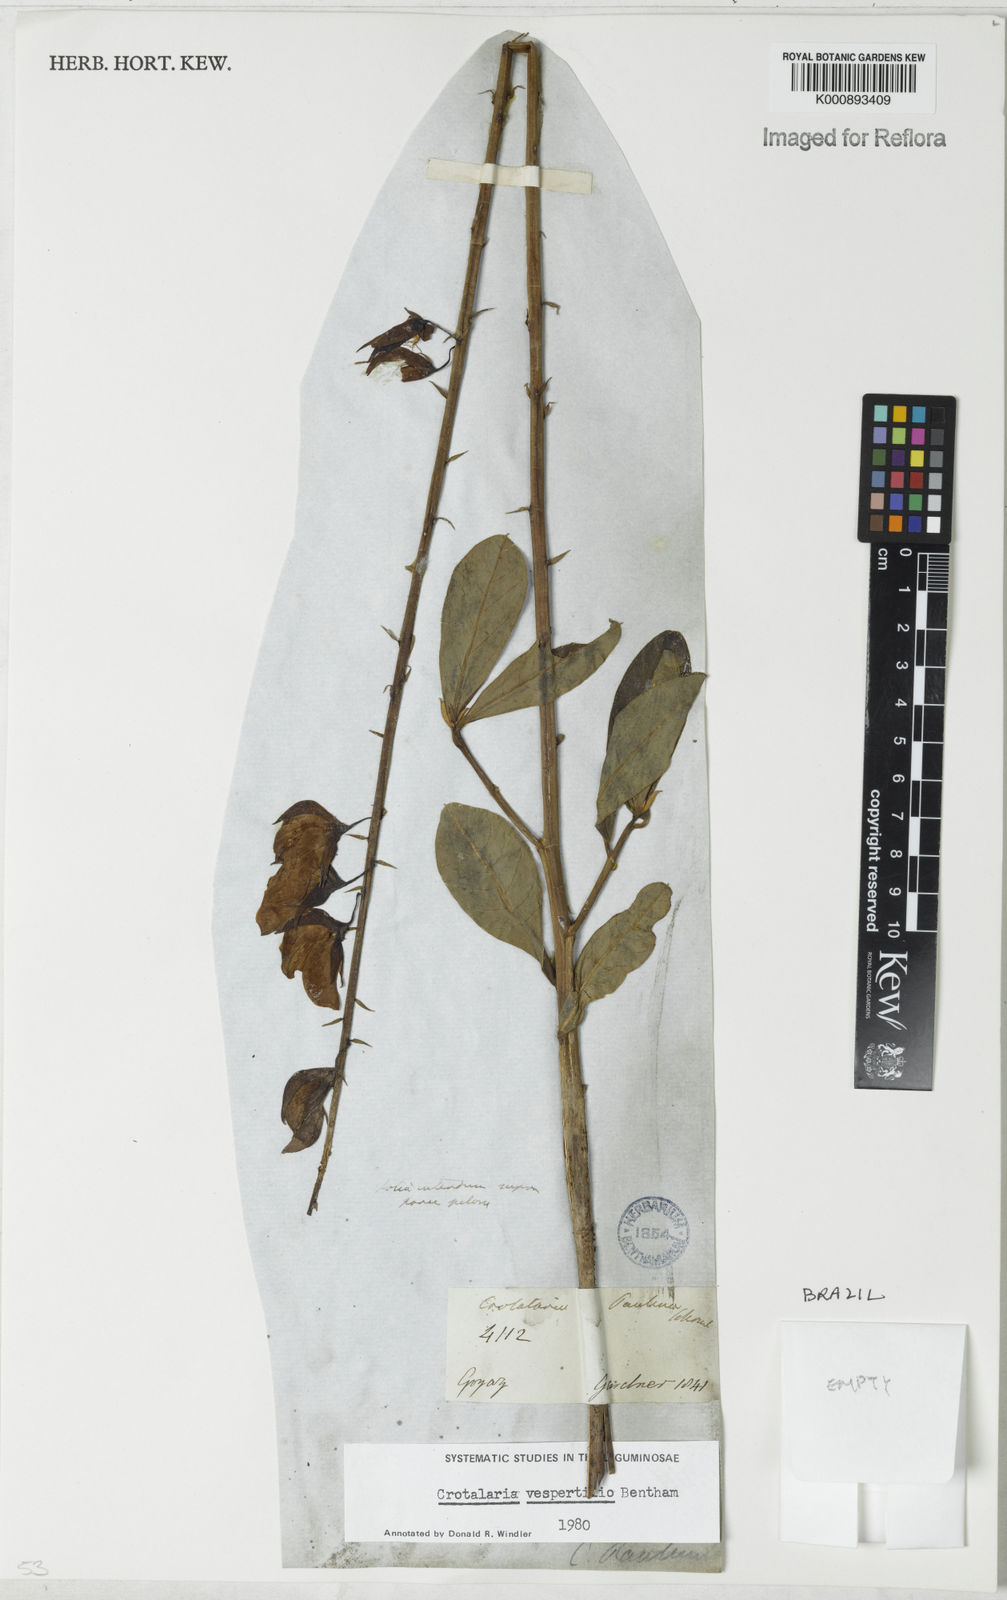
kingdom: Plantae
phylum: Tracheophyta
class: Magnoliopsida
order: Fabales
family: Fabaceae
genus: Crotalaria
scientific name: Crotalaria vespertilio
